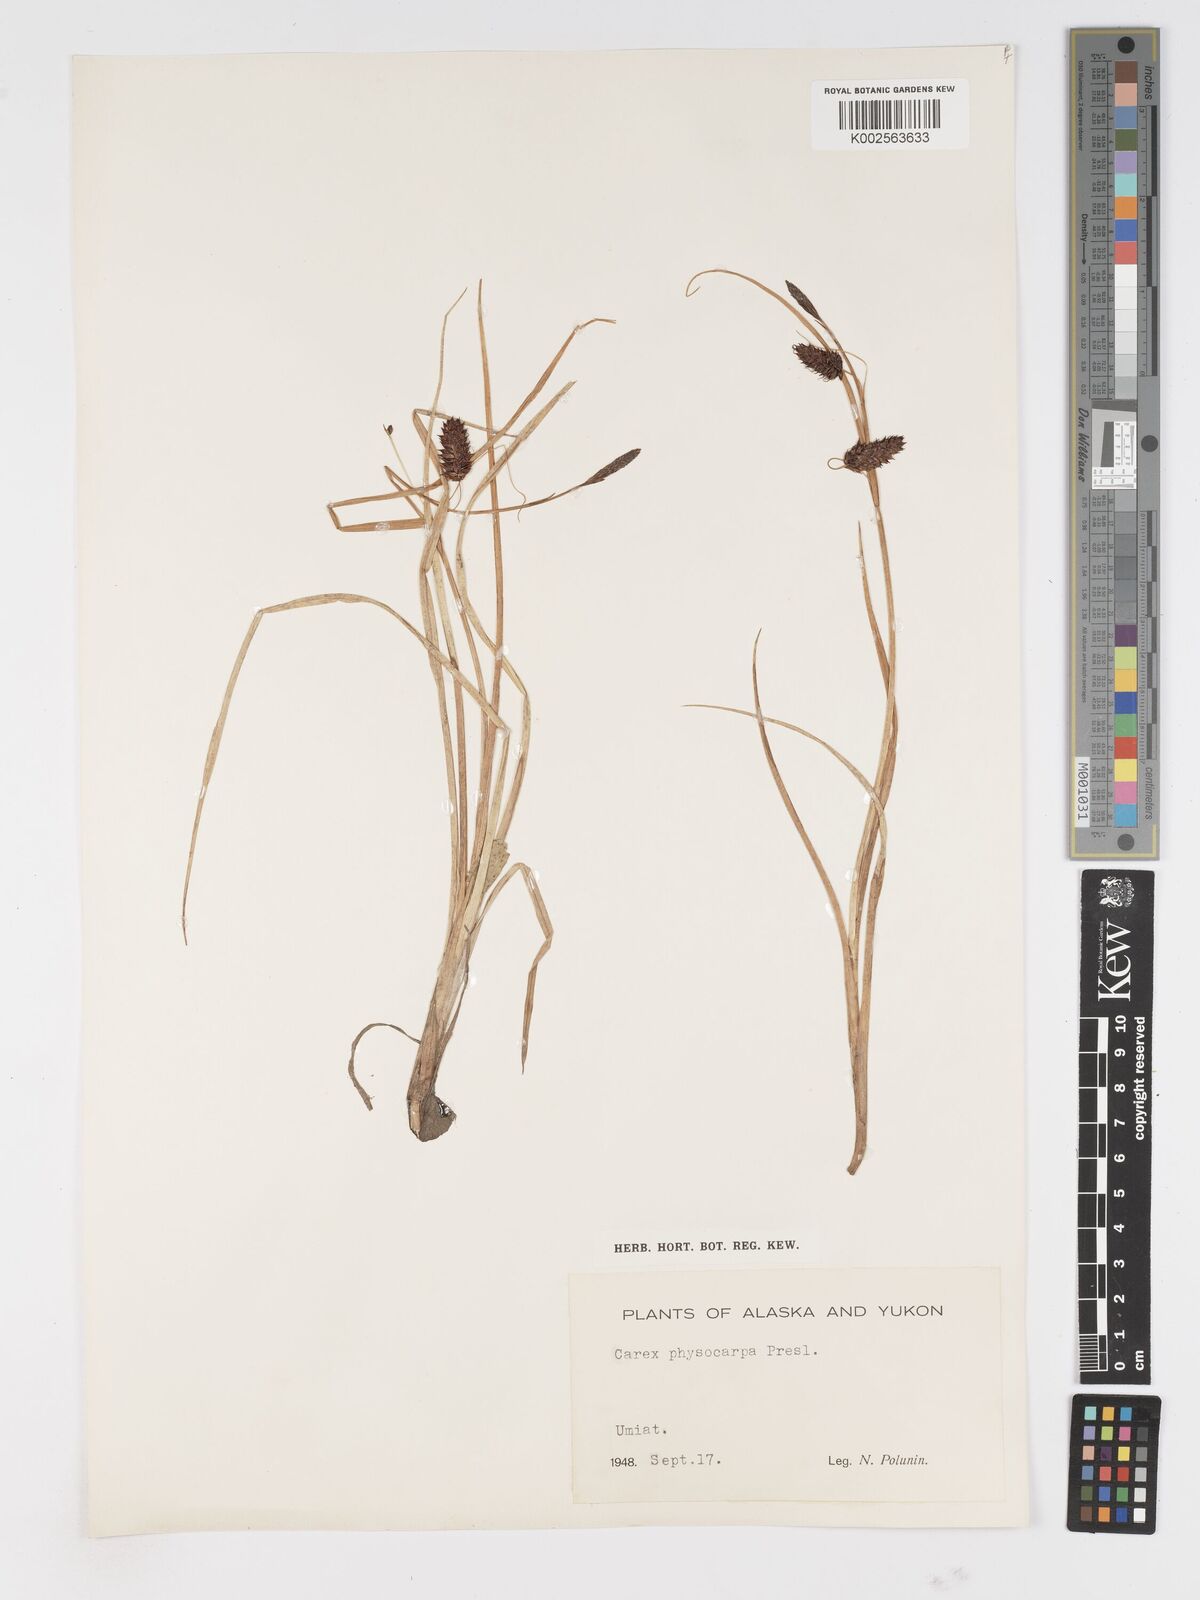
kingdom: Plantae
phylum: Tracheophyta
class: Liliopsida
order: Poales
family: Cyperaceae
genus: Carex
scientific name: Carex saxatilis
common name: Russet sedge
